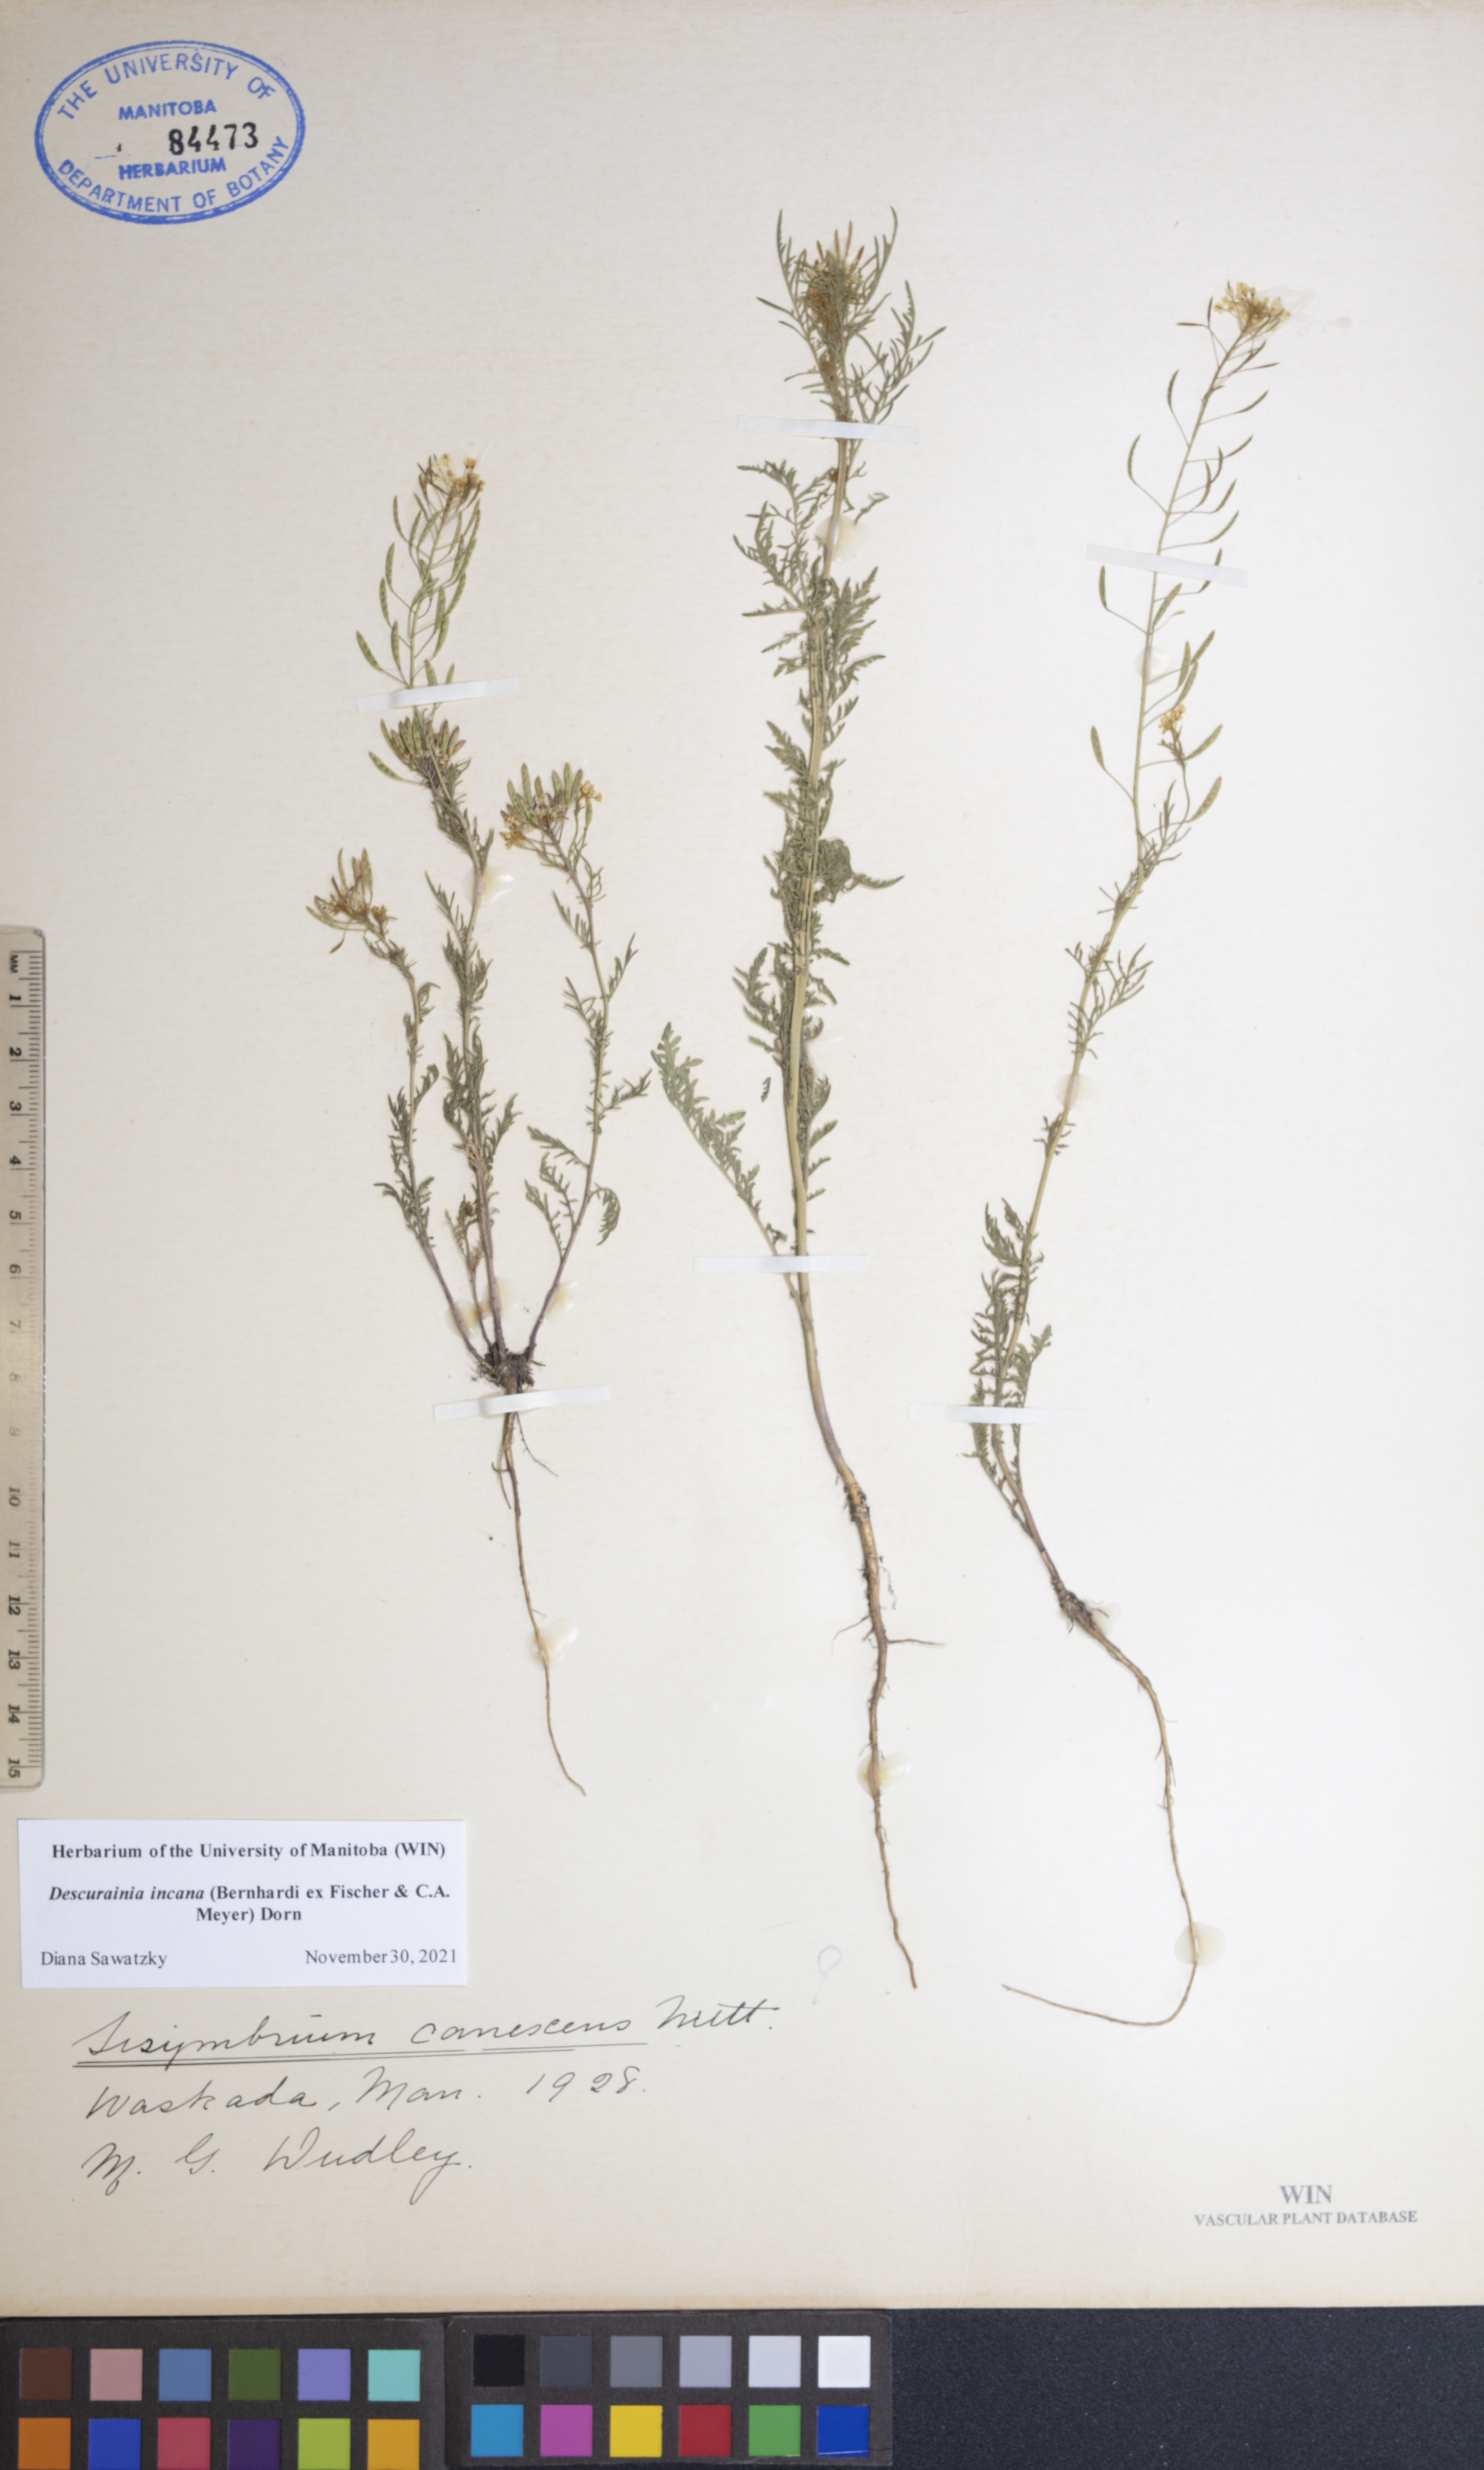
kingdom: Plantae
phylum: Tracheophyta
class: Magnoliopsida
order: Brassicales
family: Brassicaceae
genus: Descurainia
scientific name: Descurainia incana
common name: Gray tansy mustard
